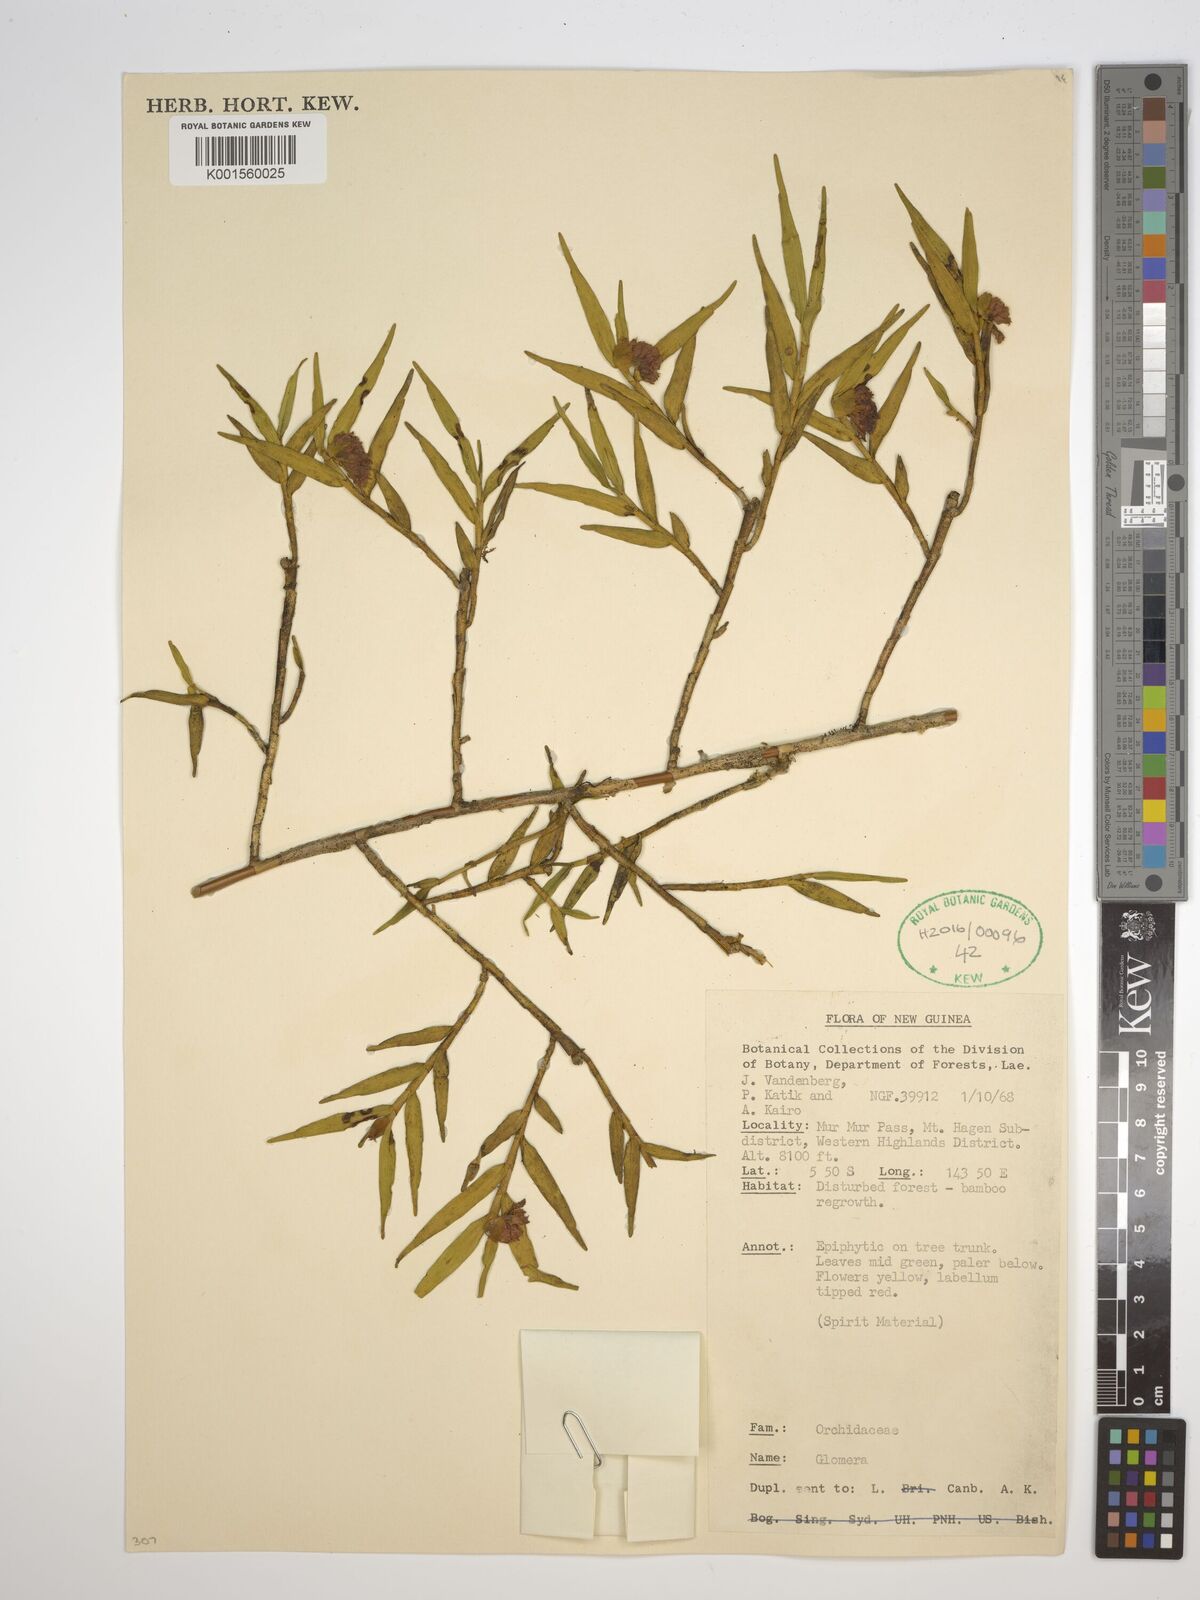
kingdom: Plantae
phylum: Tracheophyta
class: Liliopsida
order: Asparagales
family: Orchidaceae
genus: Glomera
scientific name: Glomera
